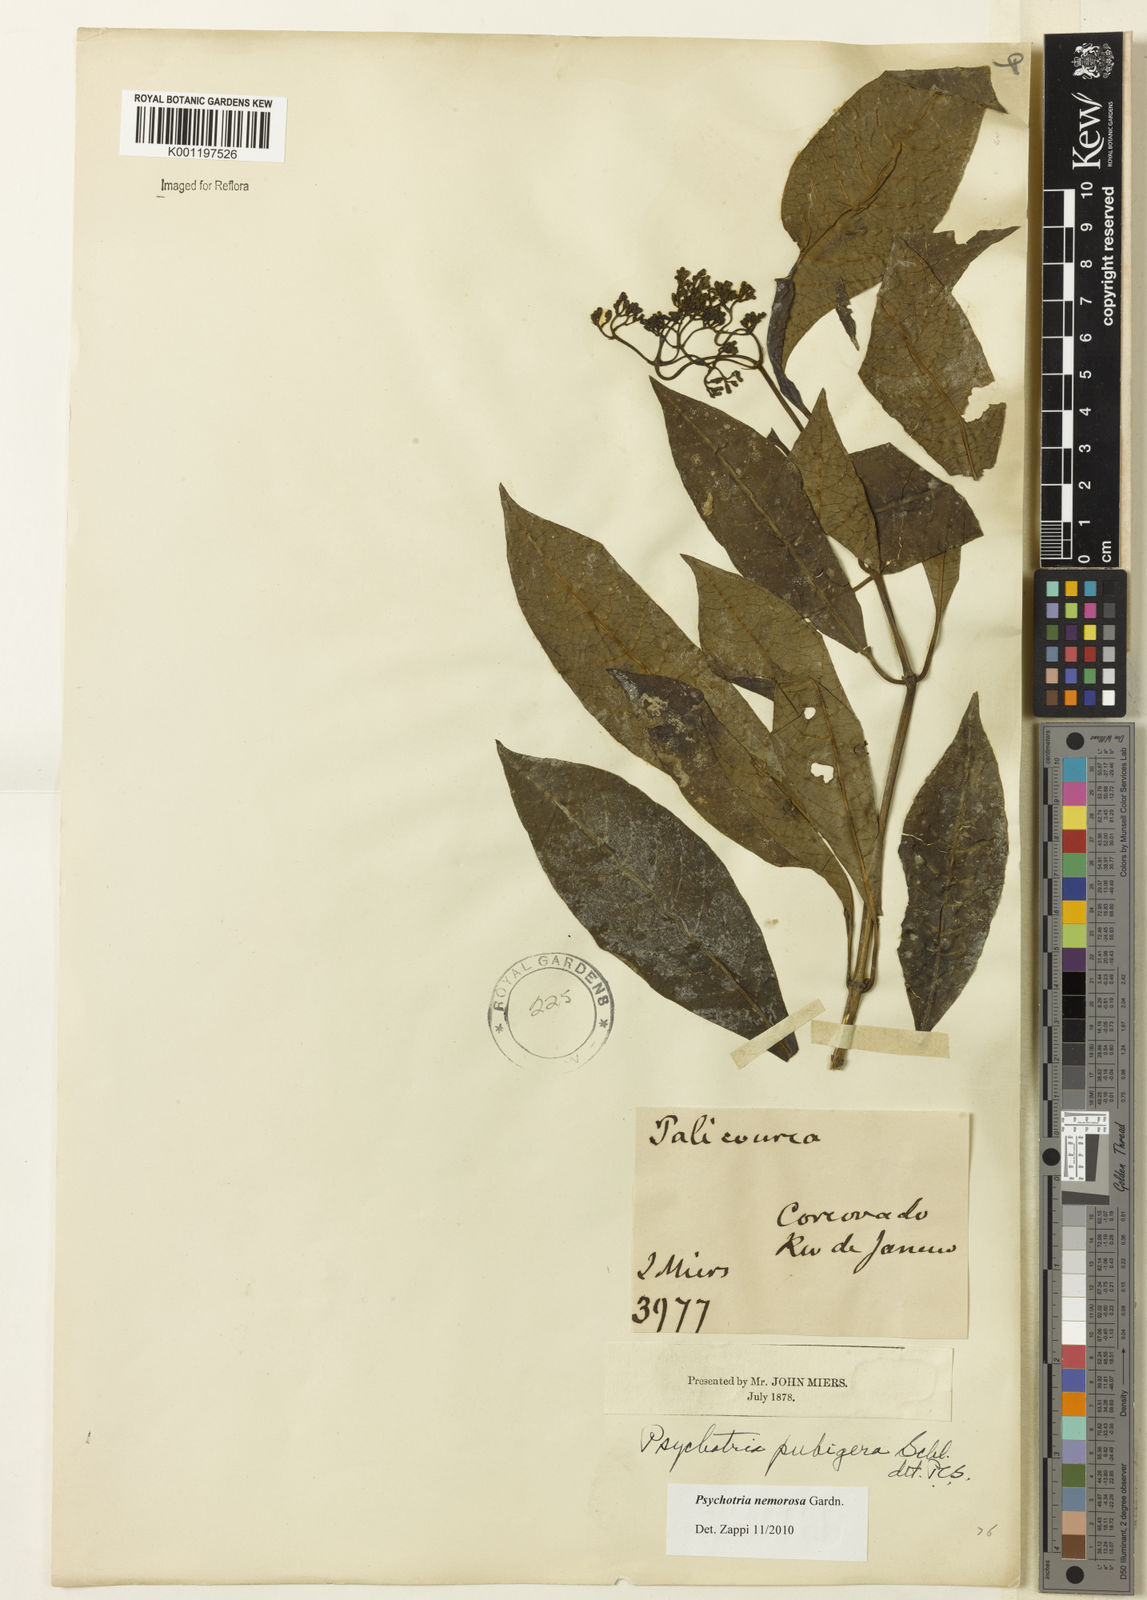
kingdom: Plantae
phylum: Tracheophyta
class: Magnoliopsida
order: Gentianales
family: Rubiaceae
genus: Psychotria
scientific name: Psychotria nemorosa
